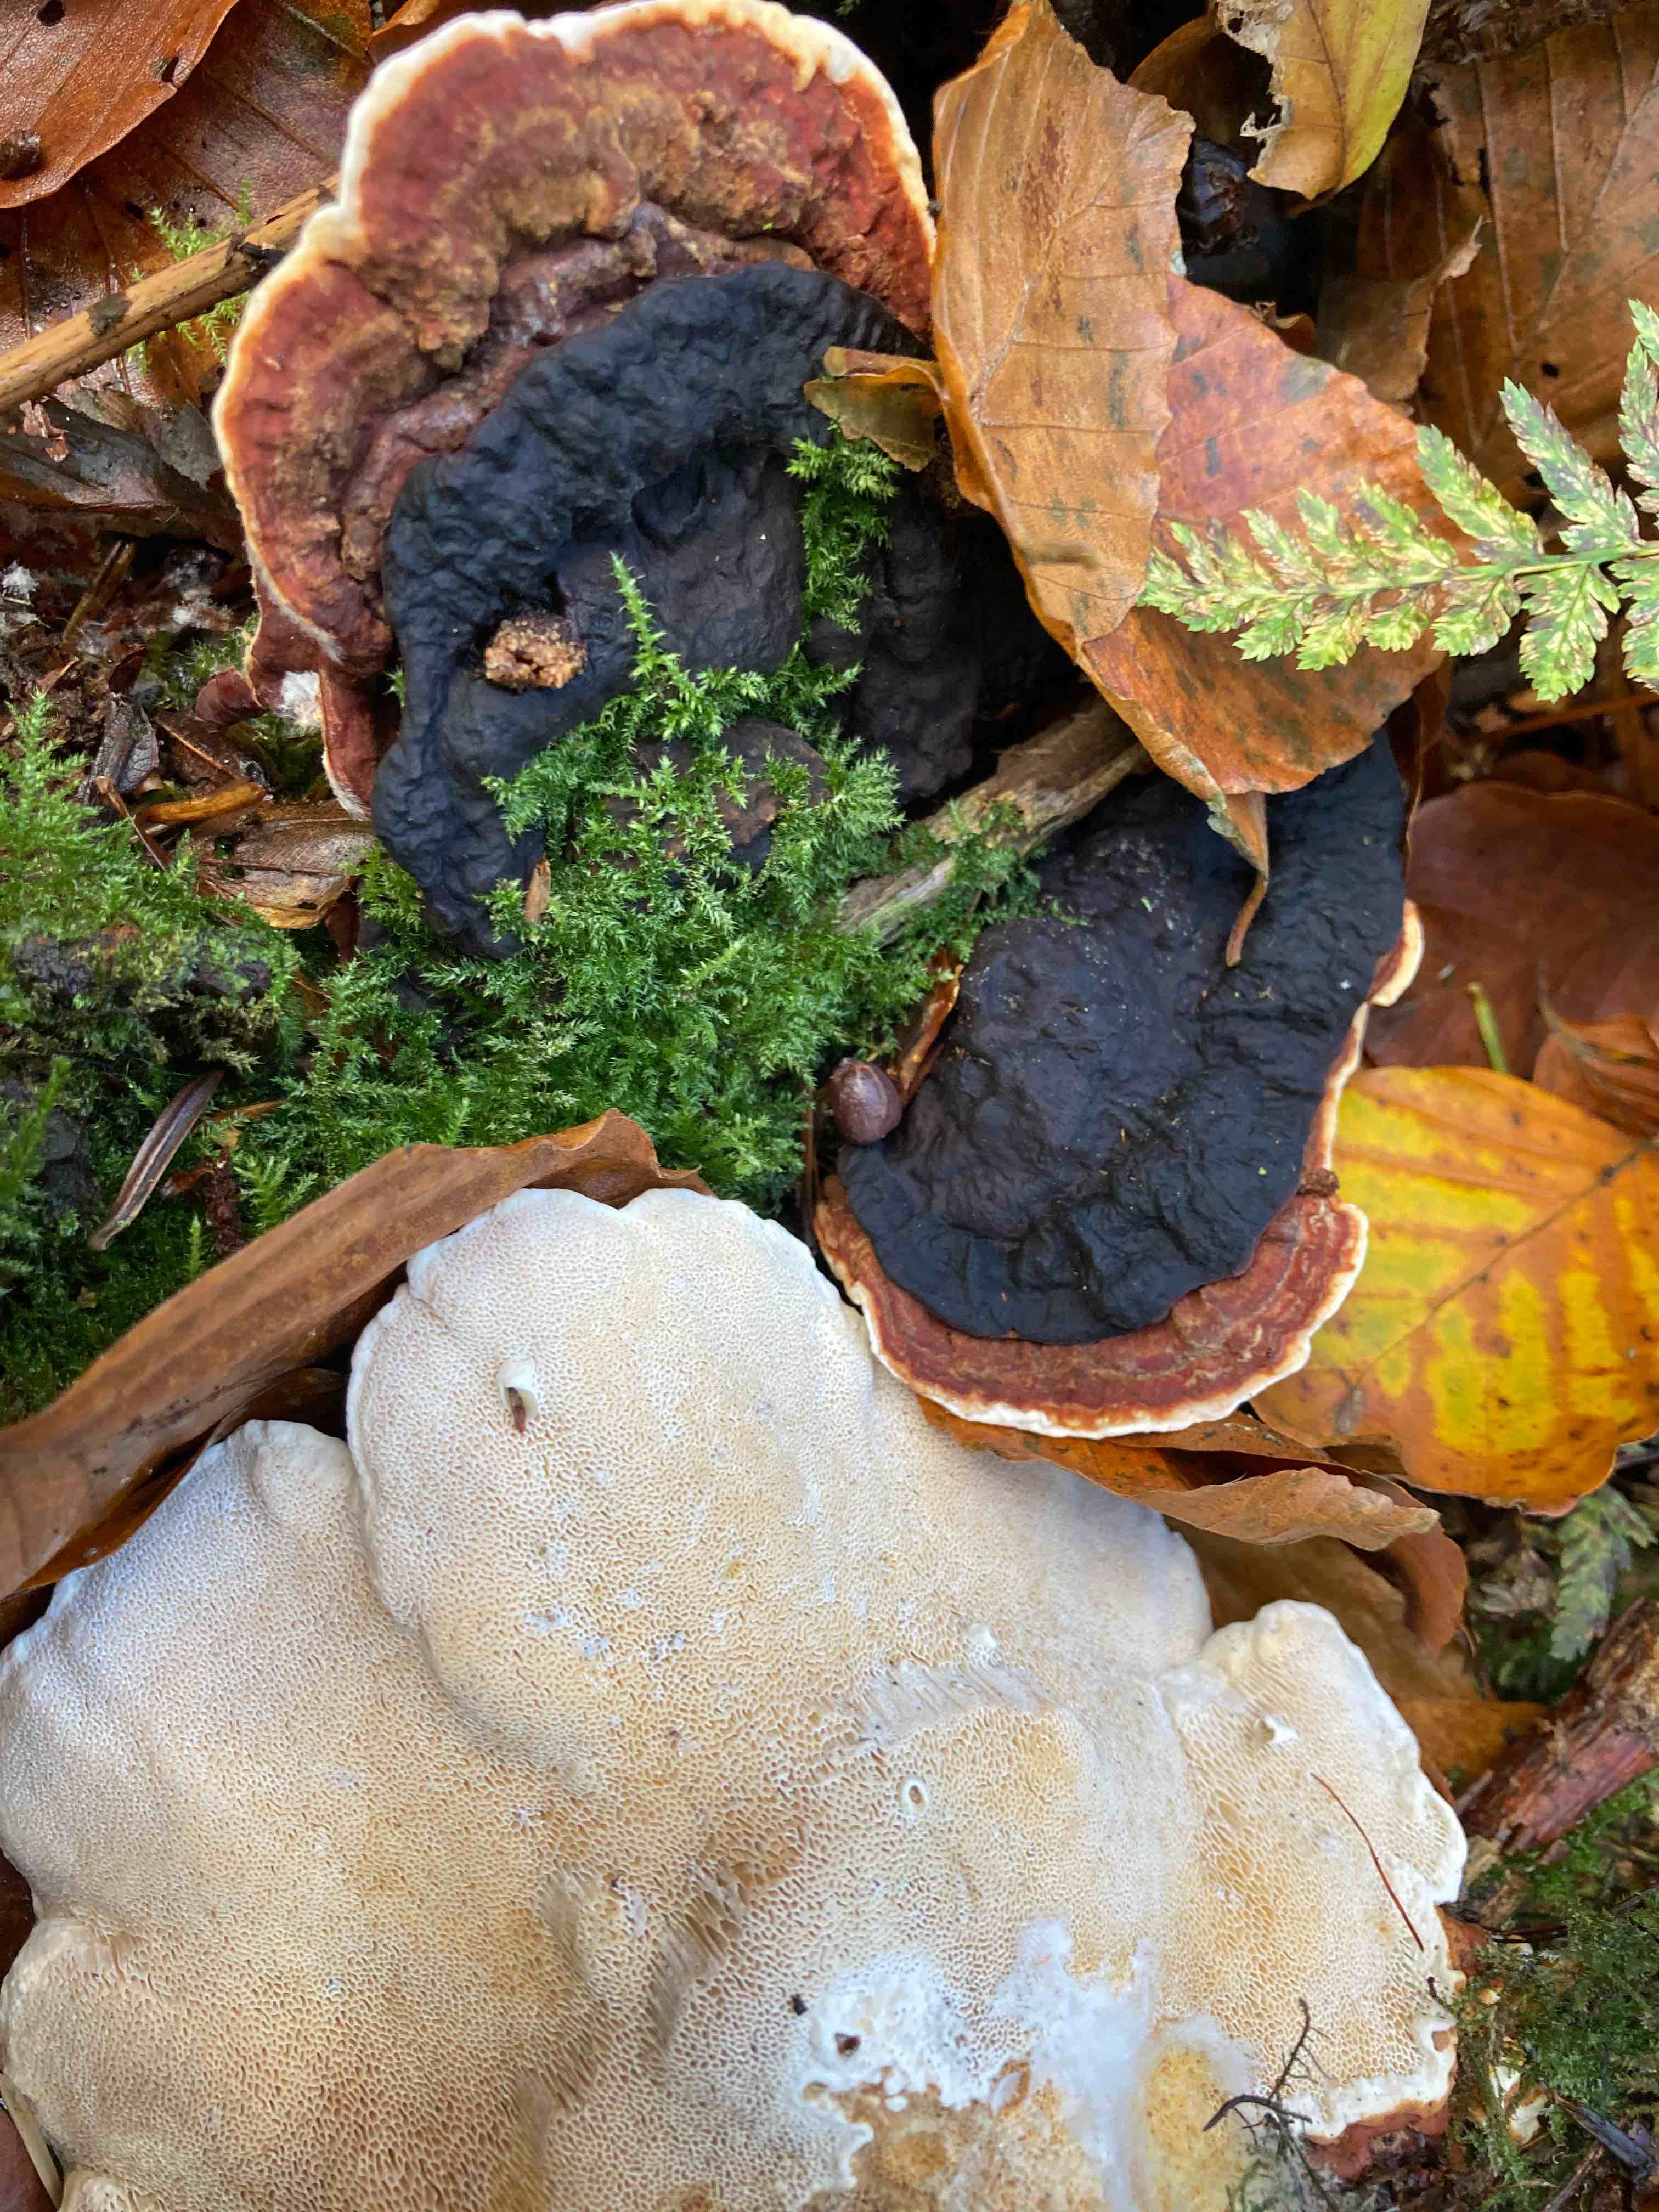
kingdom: Fungi
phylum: Basidiomycota
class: Agaricomycetes
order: Russulales
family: Bondarzewiaceae
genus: Heterobasidion
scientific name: Heterobasidion parviporum
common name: småporet rodfordærver
